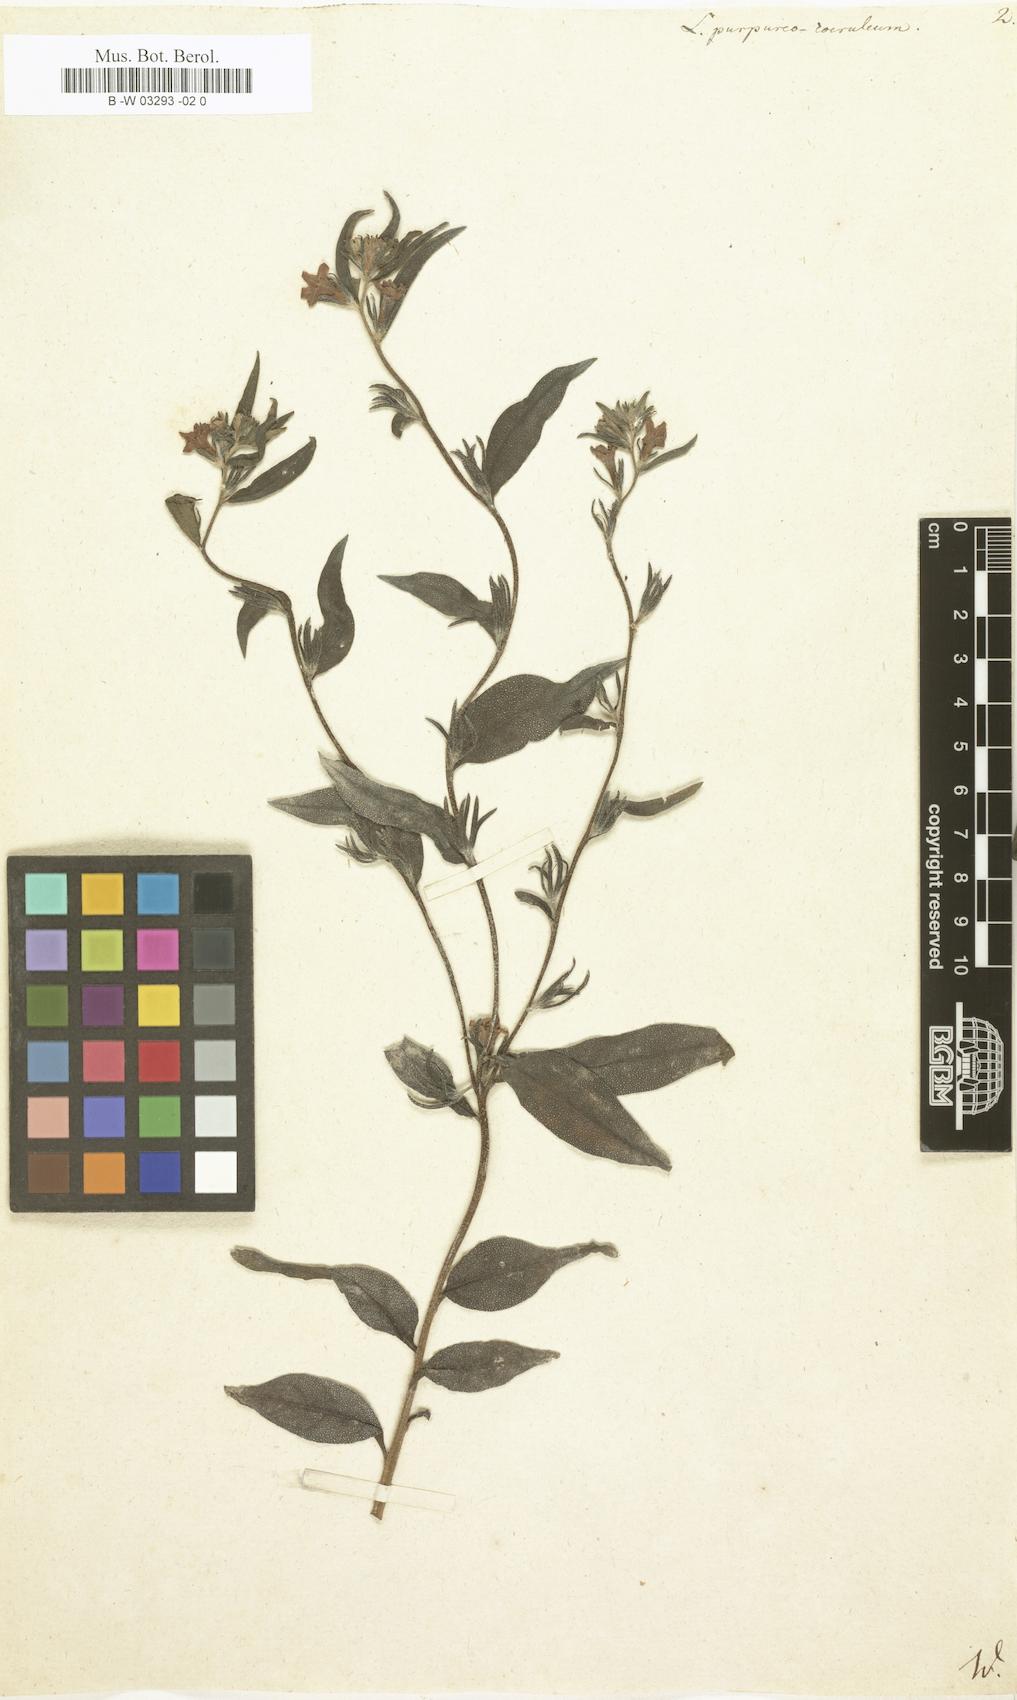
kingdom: Plantae
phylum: Tracheophyta
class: Magnoliopsida
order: Boraginales
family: Boraginaceae
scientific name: Boraginaceae
